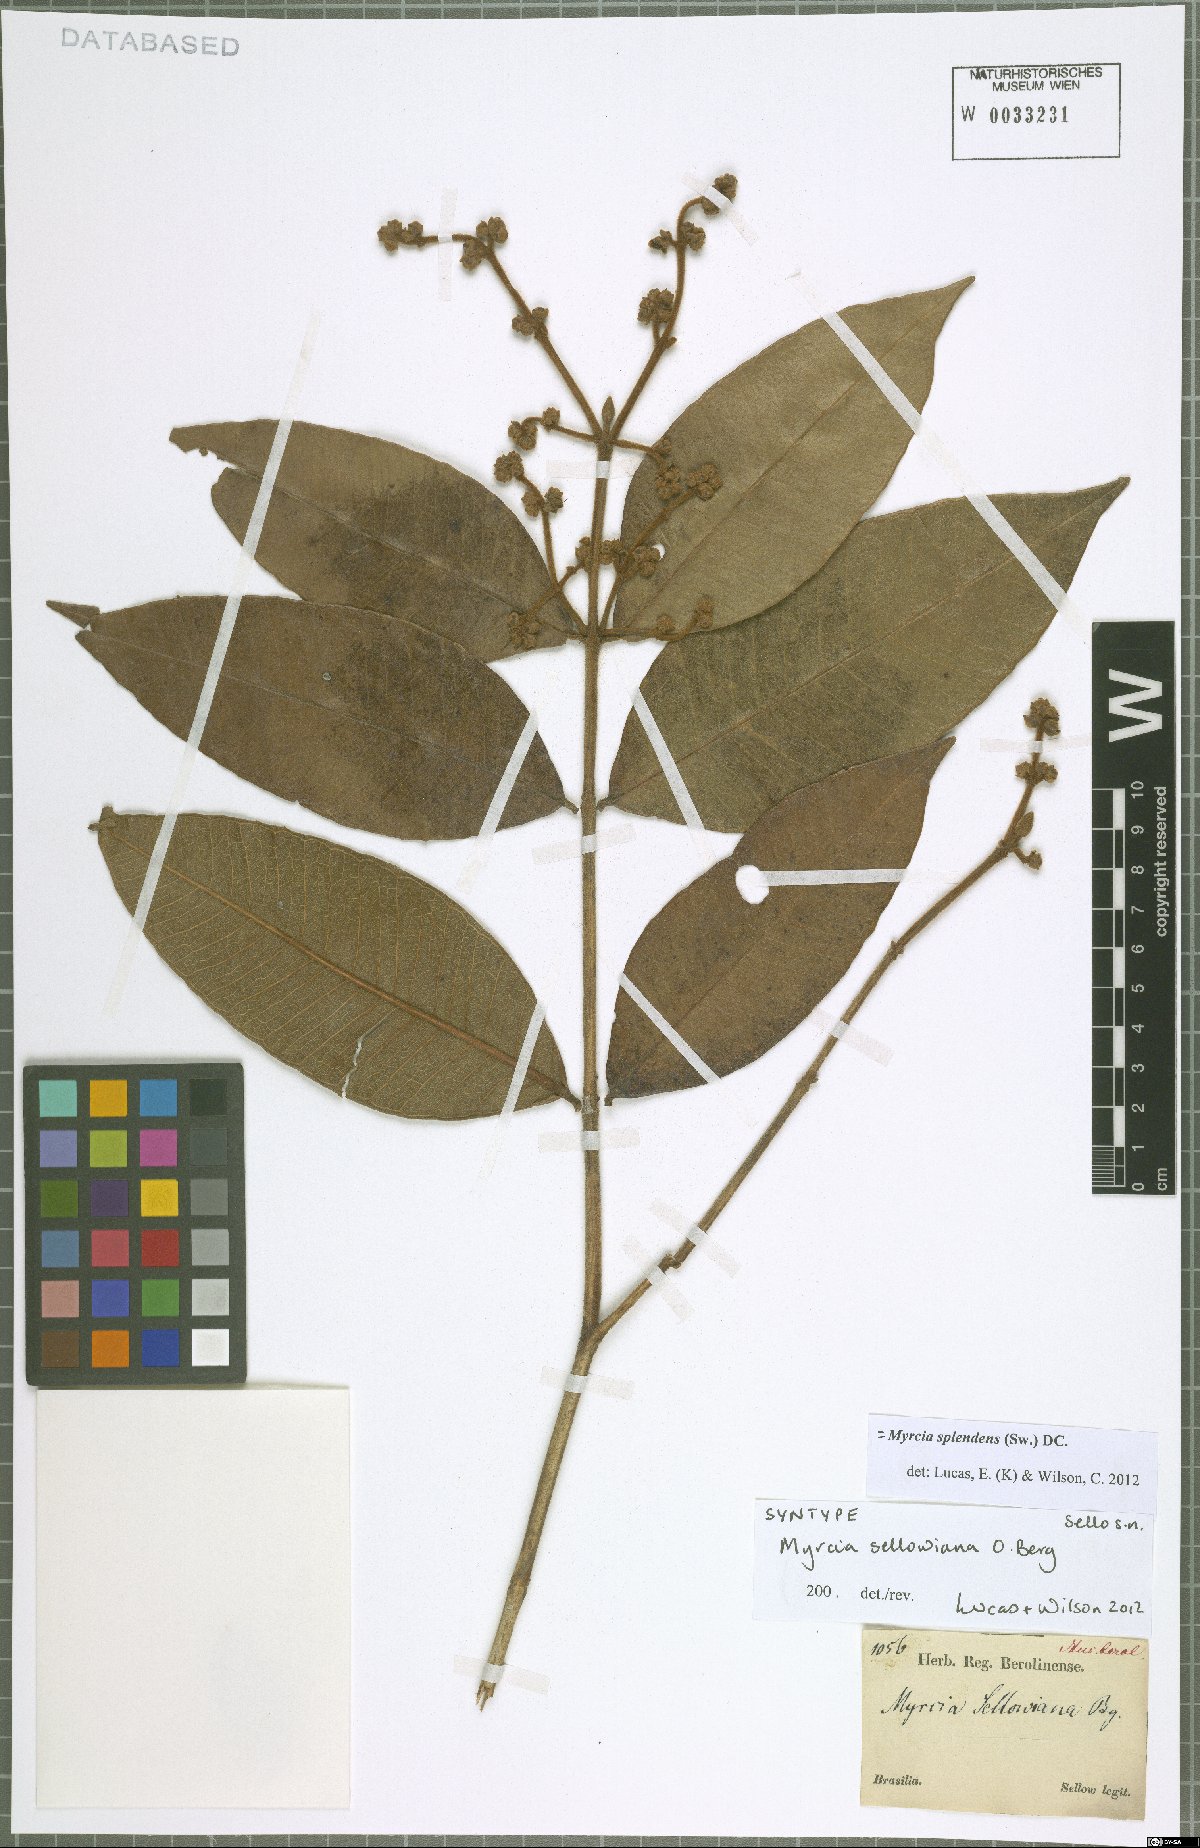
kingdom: Plantae
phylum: Tracheophyta
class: Magnoliopsida
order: Myrtales
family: Myrtaceae
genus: Myrcia
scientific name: Myrcia splendens
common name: Surinam cherry
